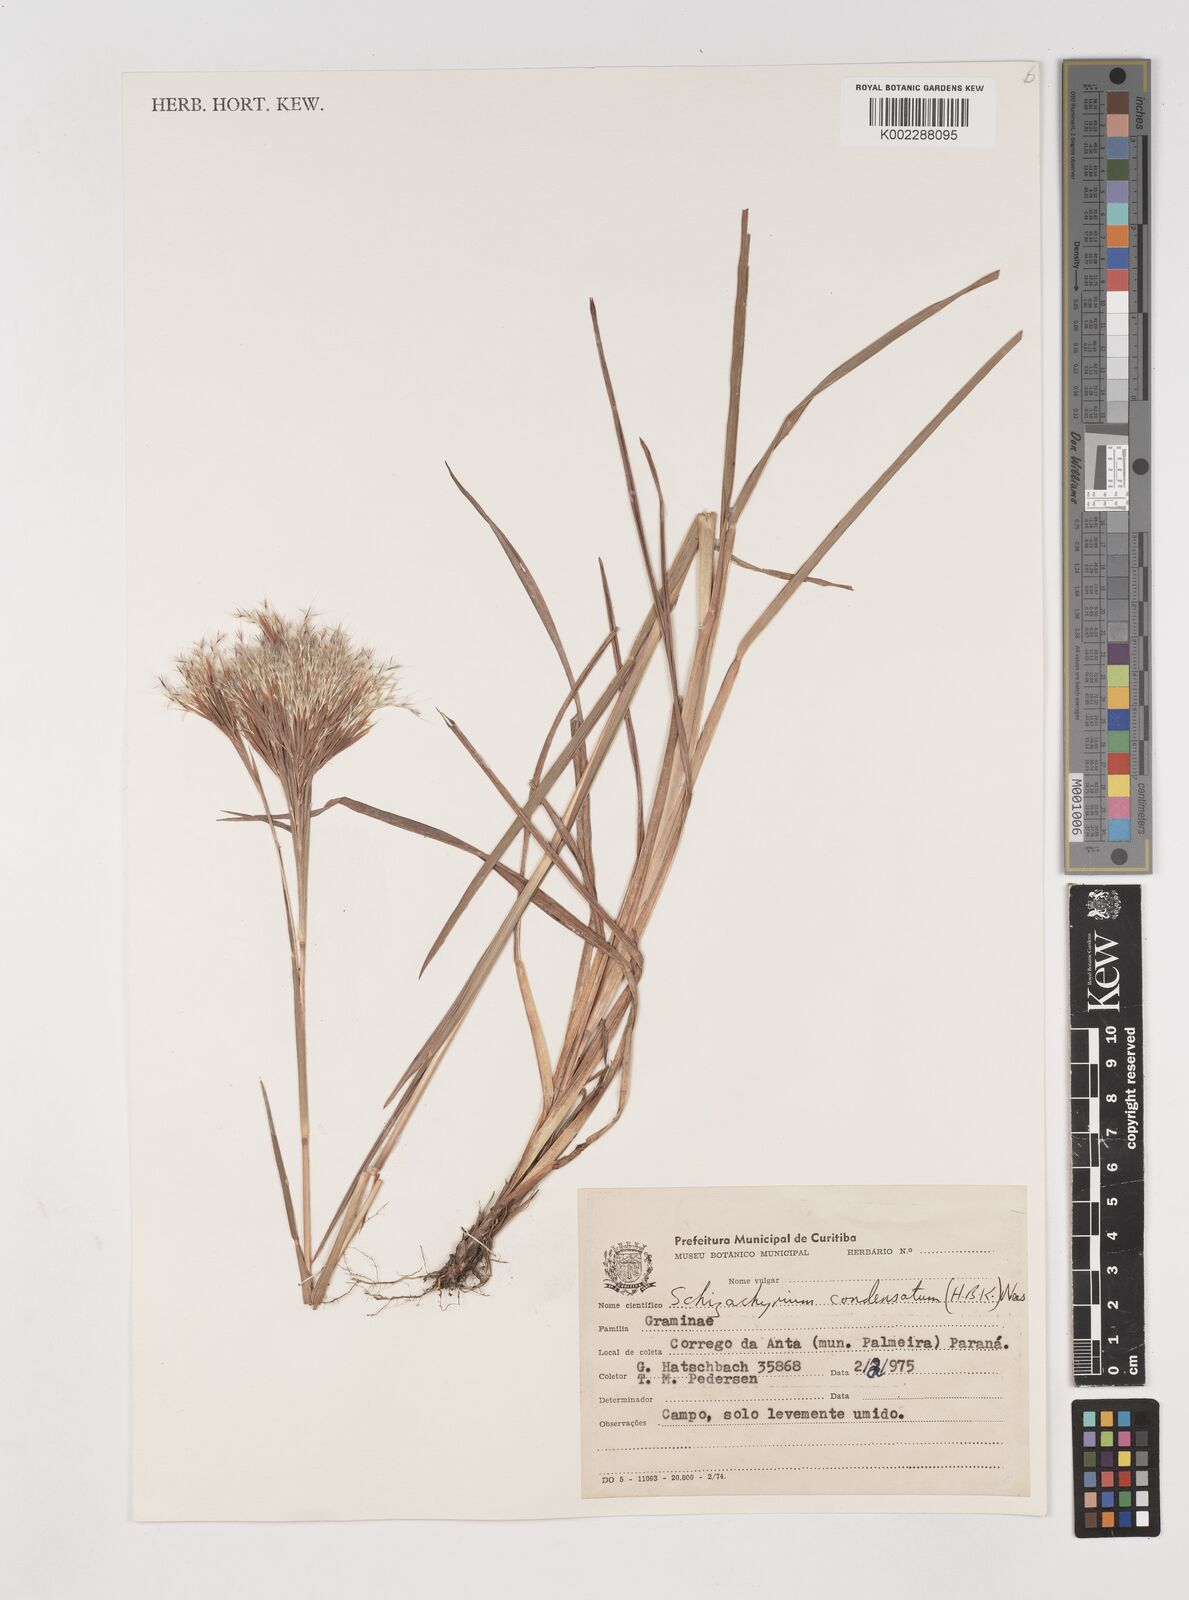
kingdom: Plantae
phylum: Tracheophyta
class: Liliopsida
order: Poales
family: Poaceae
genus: Schizachyrium
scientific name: Schizachyrium condensatum
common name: Bush beardgrass
